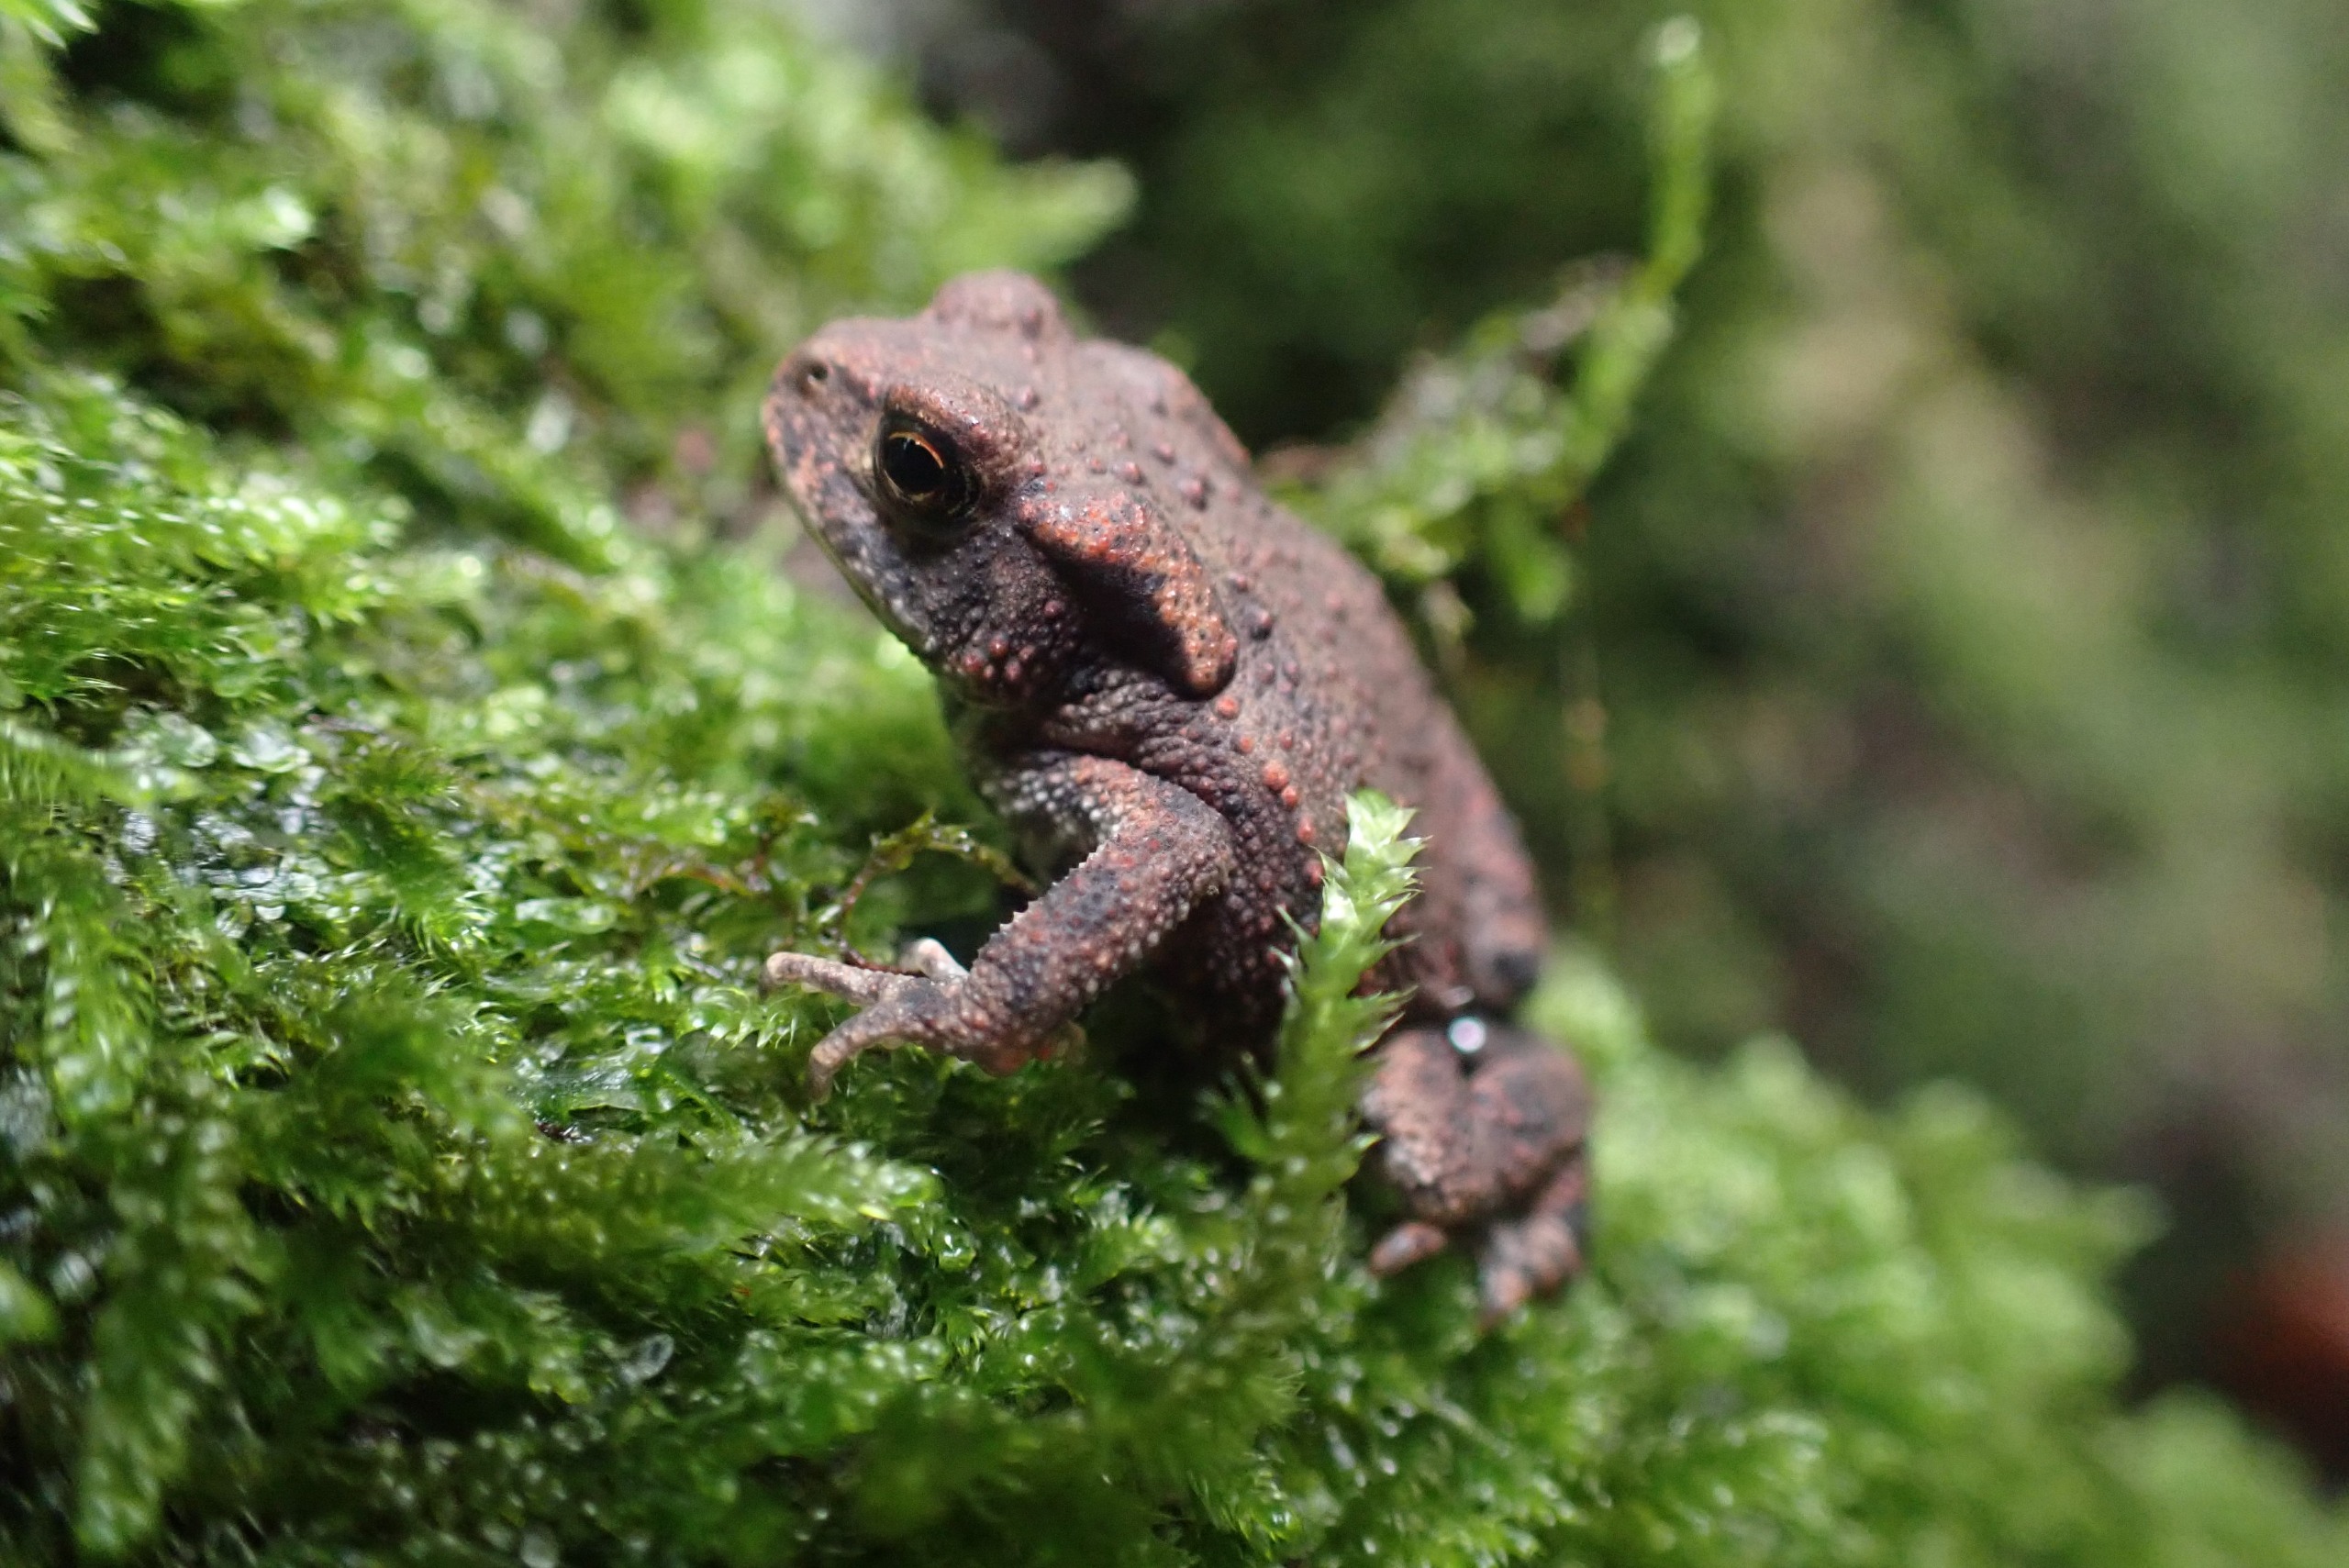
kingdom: Animalia
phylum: Chordata
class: Amphibia
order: Anura
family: Bufonidae
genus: Bufo
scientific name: Bufo bufo
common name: Skrubtudse
